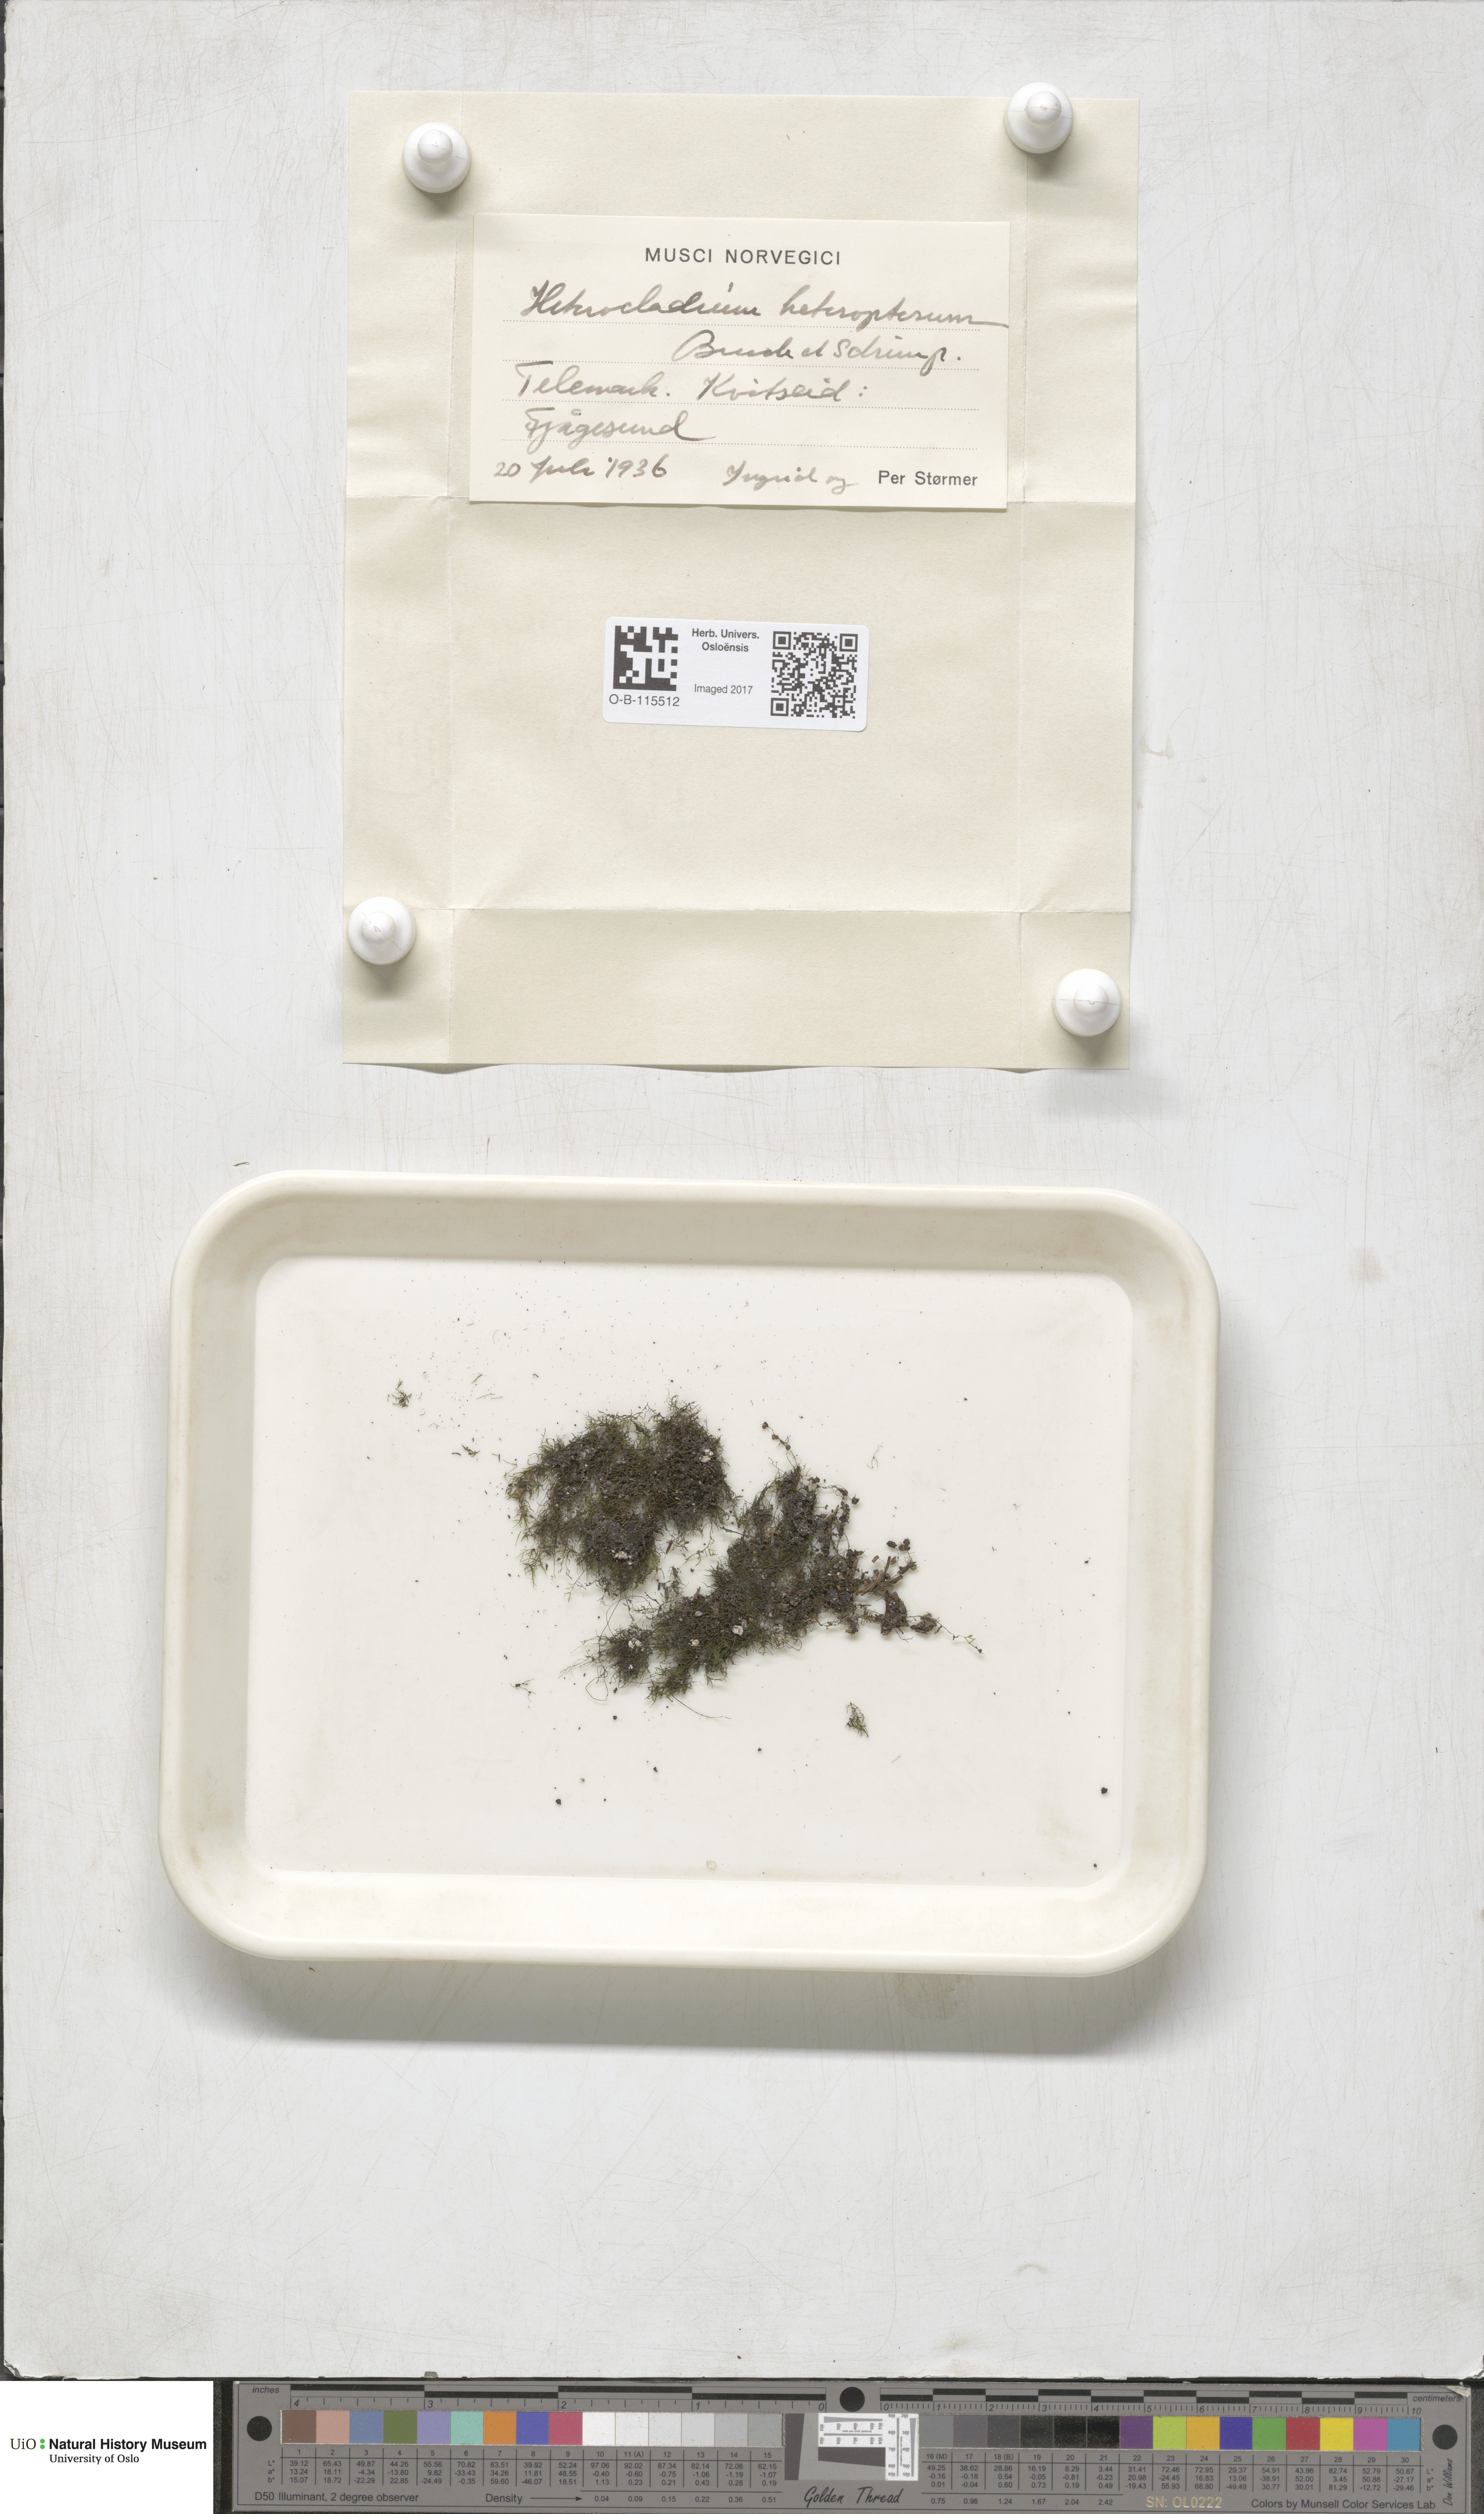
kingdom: Plantae
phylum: Bryophyta
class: Bryopsida
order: Hypnales
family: Lembophyllaceae
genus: Heterocladium
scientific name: Heterocladium heteropterum
